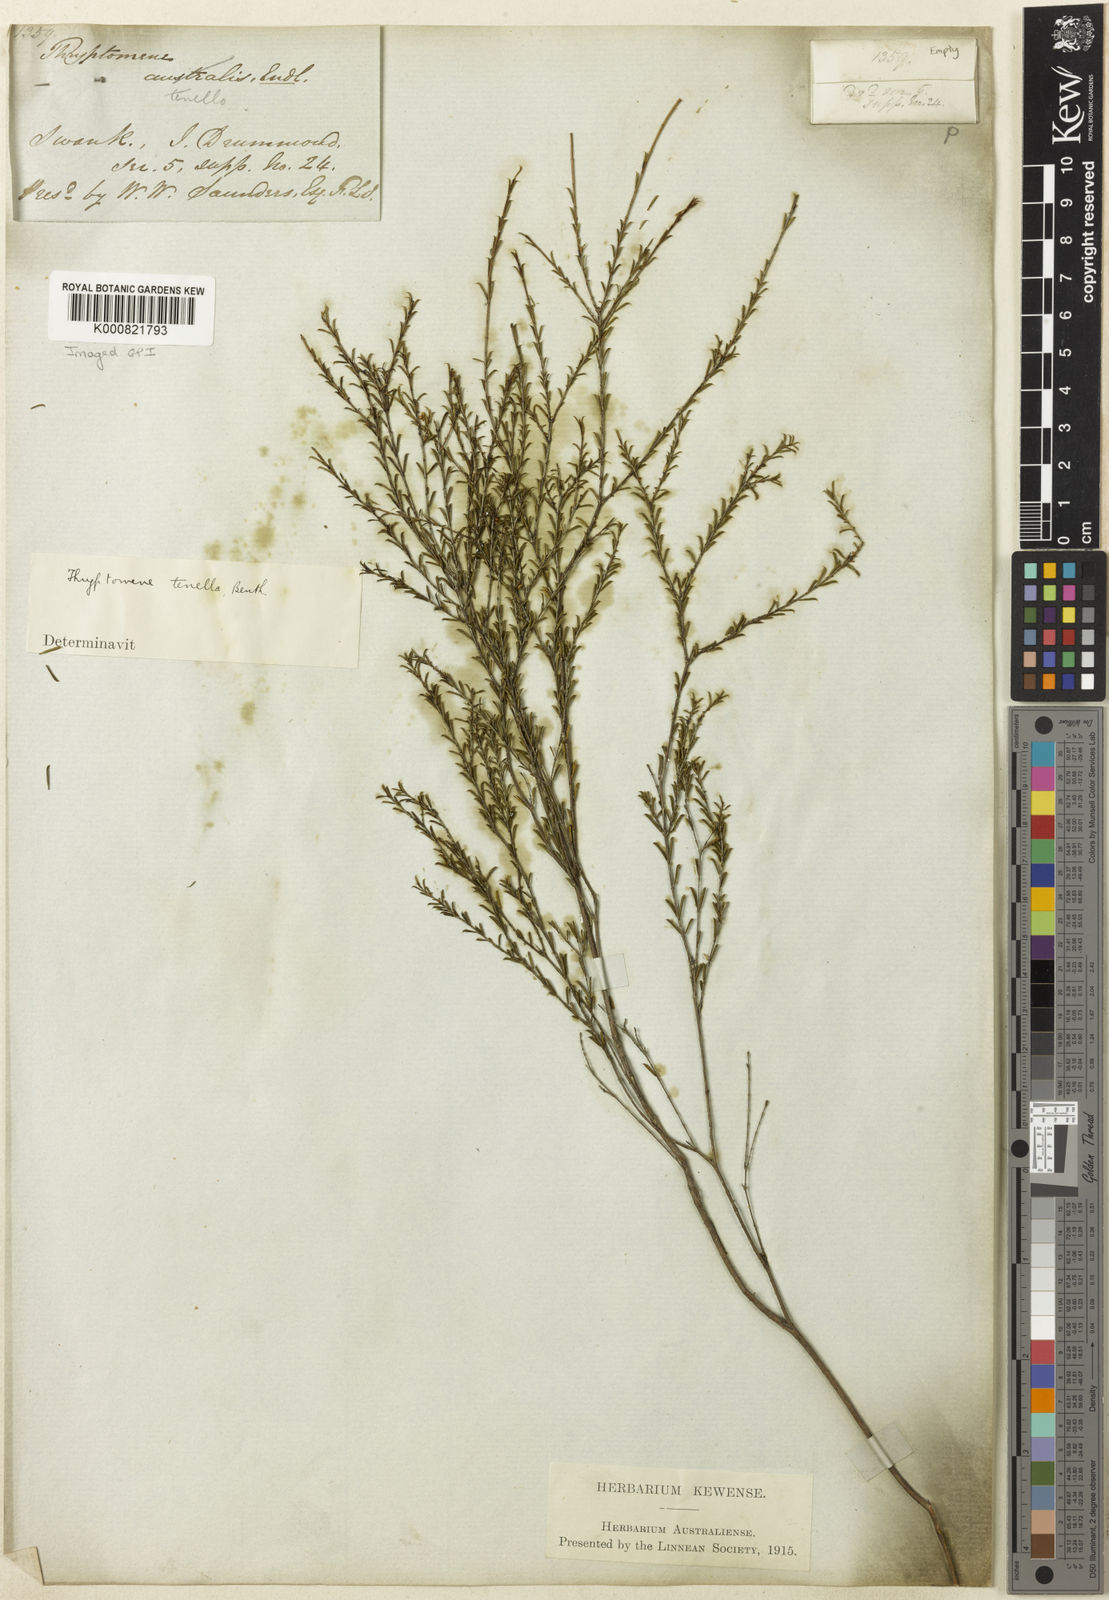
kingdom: Plantae
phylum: Tracheophyta
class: Magnoliopsida
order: Myrtales
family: Myrtaceae
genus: Thryptomene
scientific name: Thryptomene cuspidata
